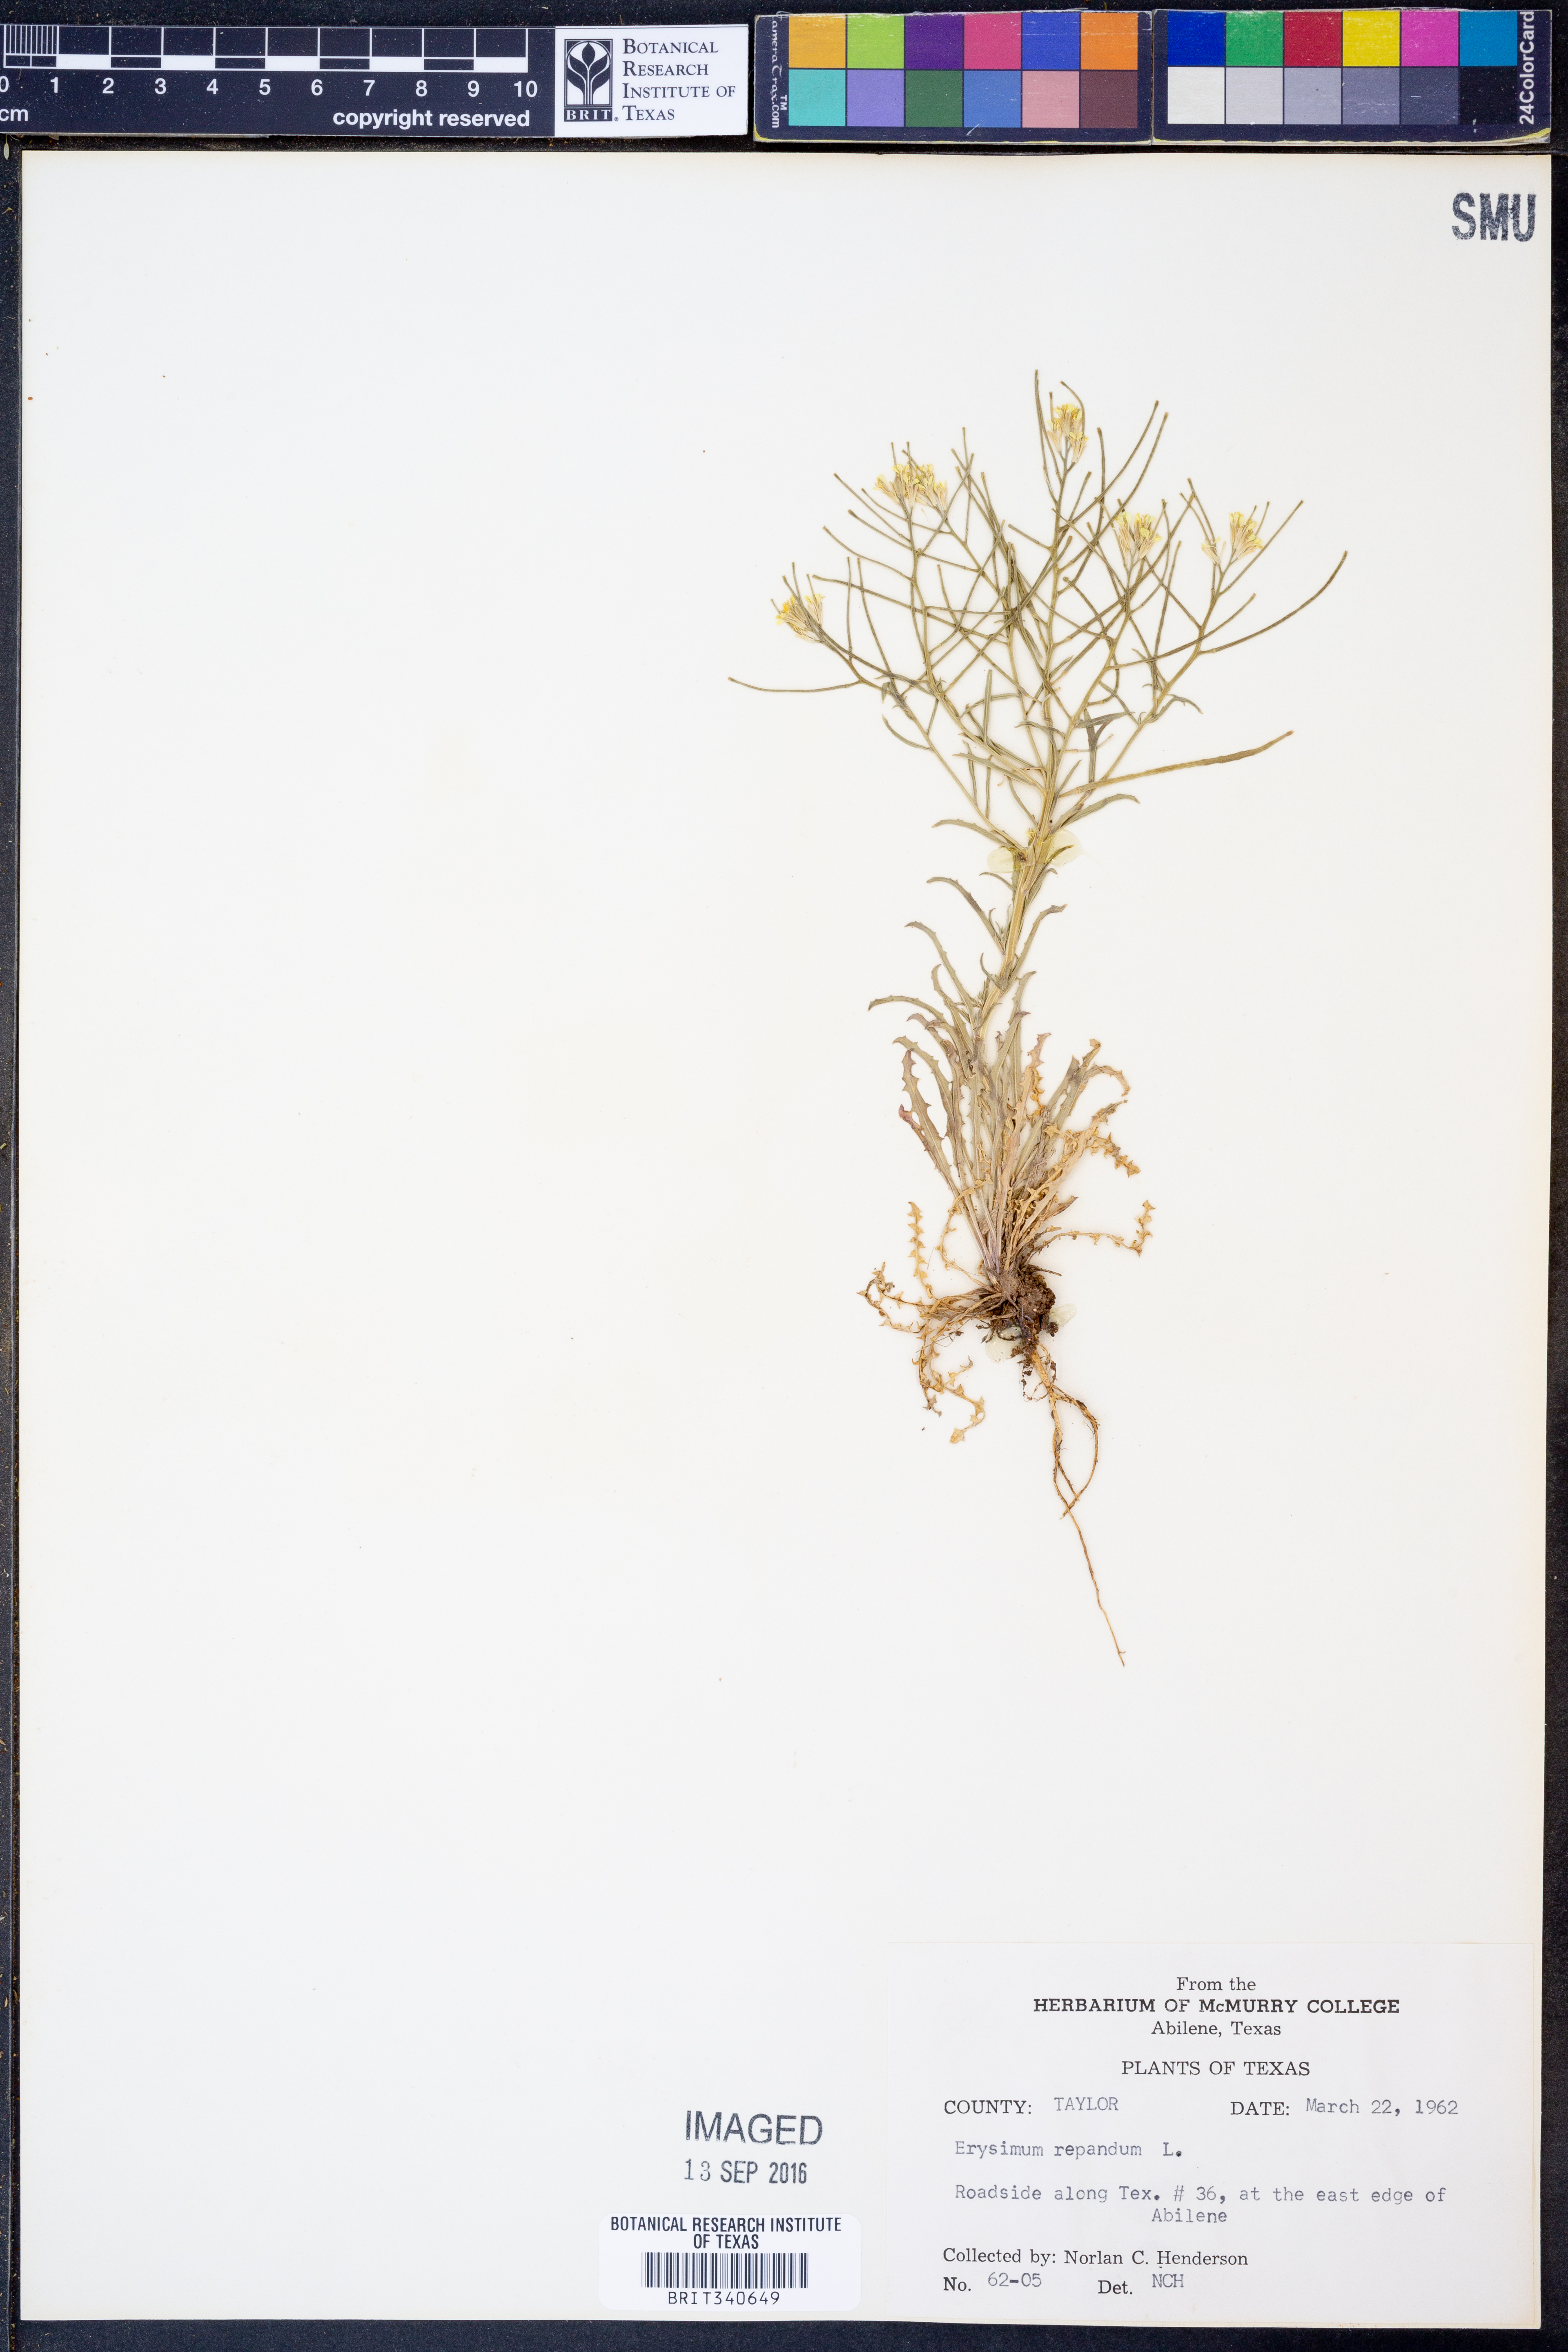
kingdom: Plantae
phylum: Tracheophyta
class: Magnoliopsida
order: Brassicales
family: Brassicaceae
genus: Erysimum
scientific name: Erysimum repandum
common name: Spreading wallflower
